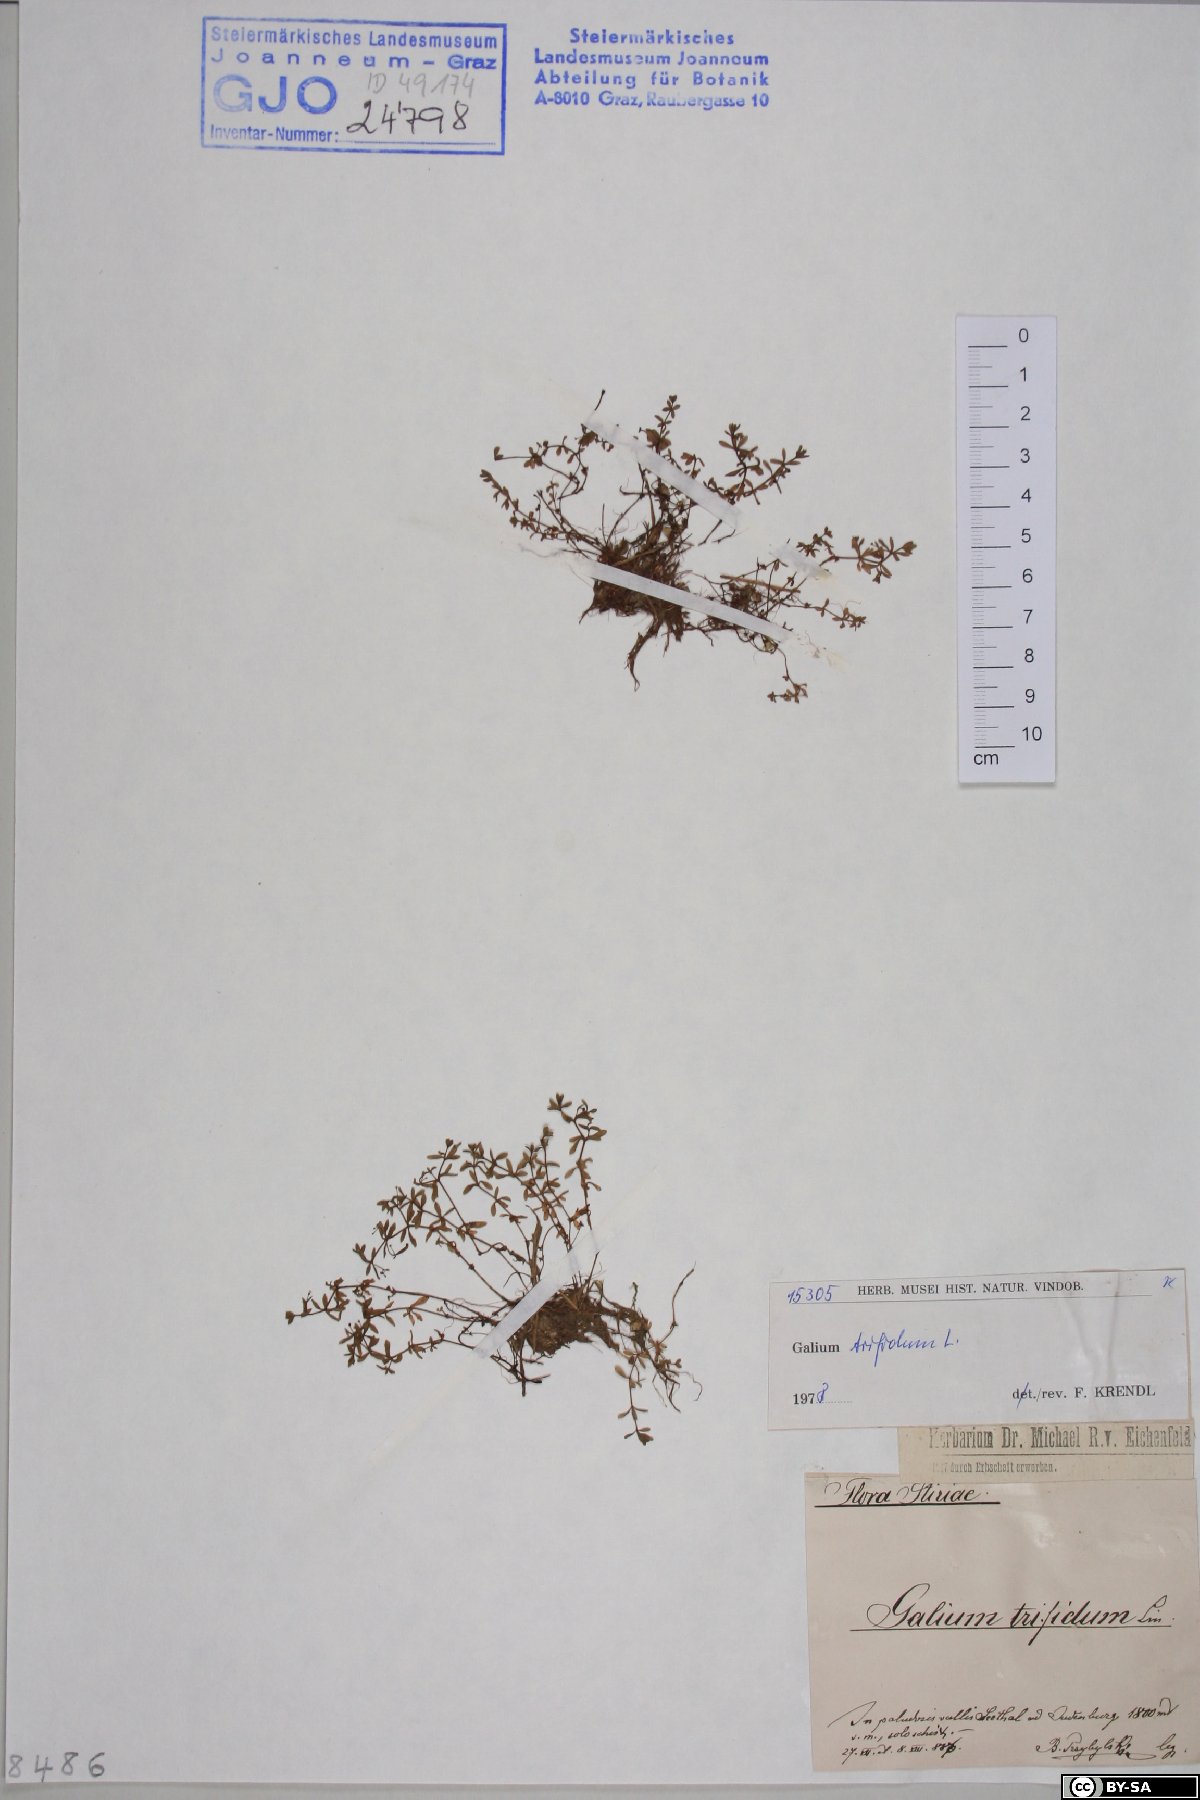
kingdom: Plantae
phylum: Tracheophyta
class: Magnoliopsida
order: Gentianales
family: Rubiaceae
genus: Galium
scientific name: Galium trifidum
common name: Small bedstraw
